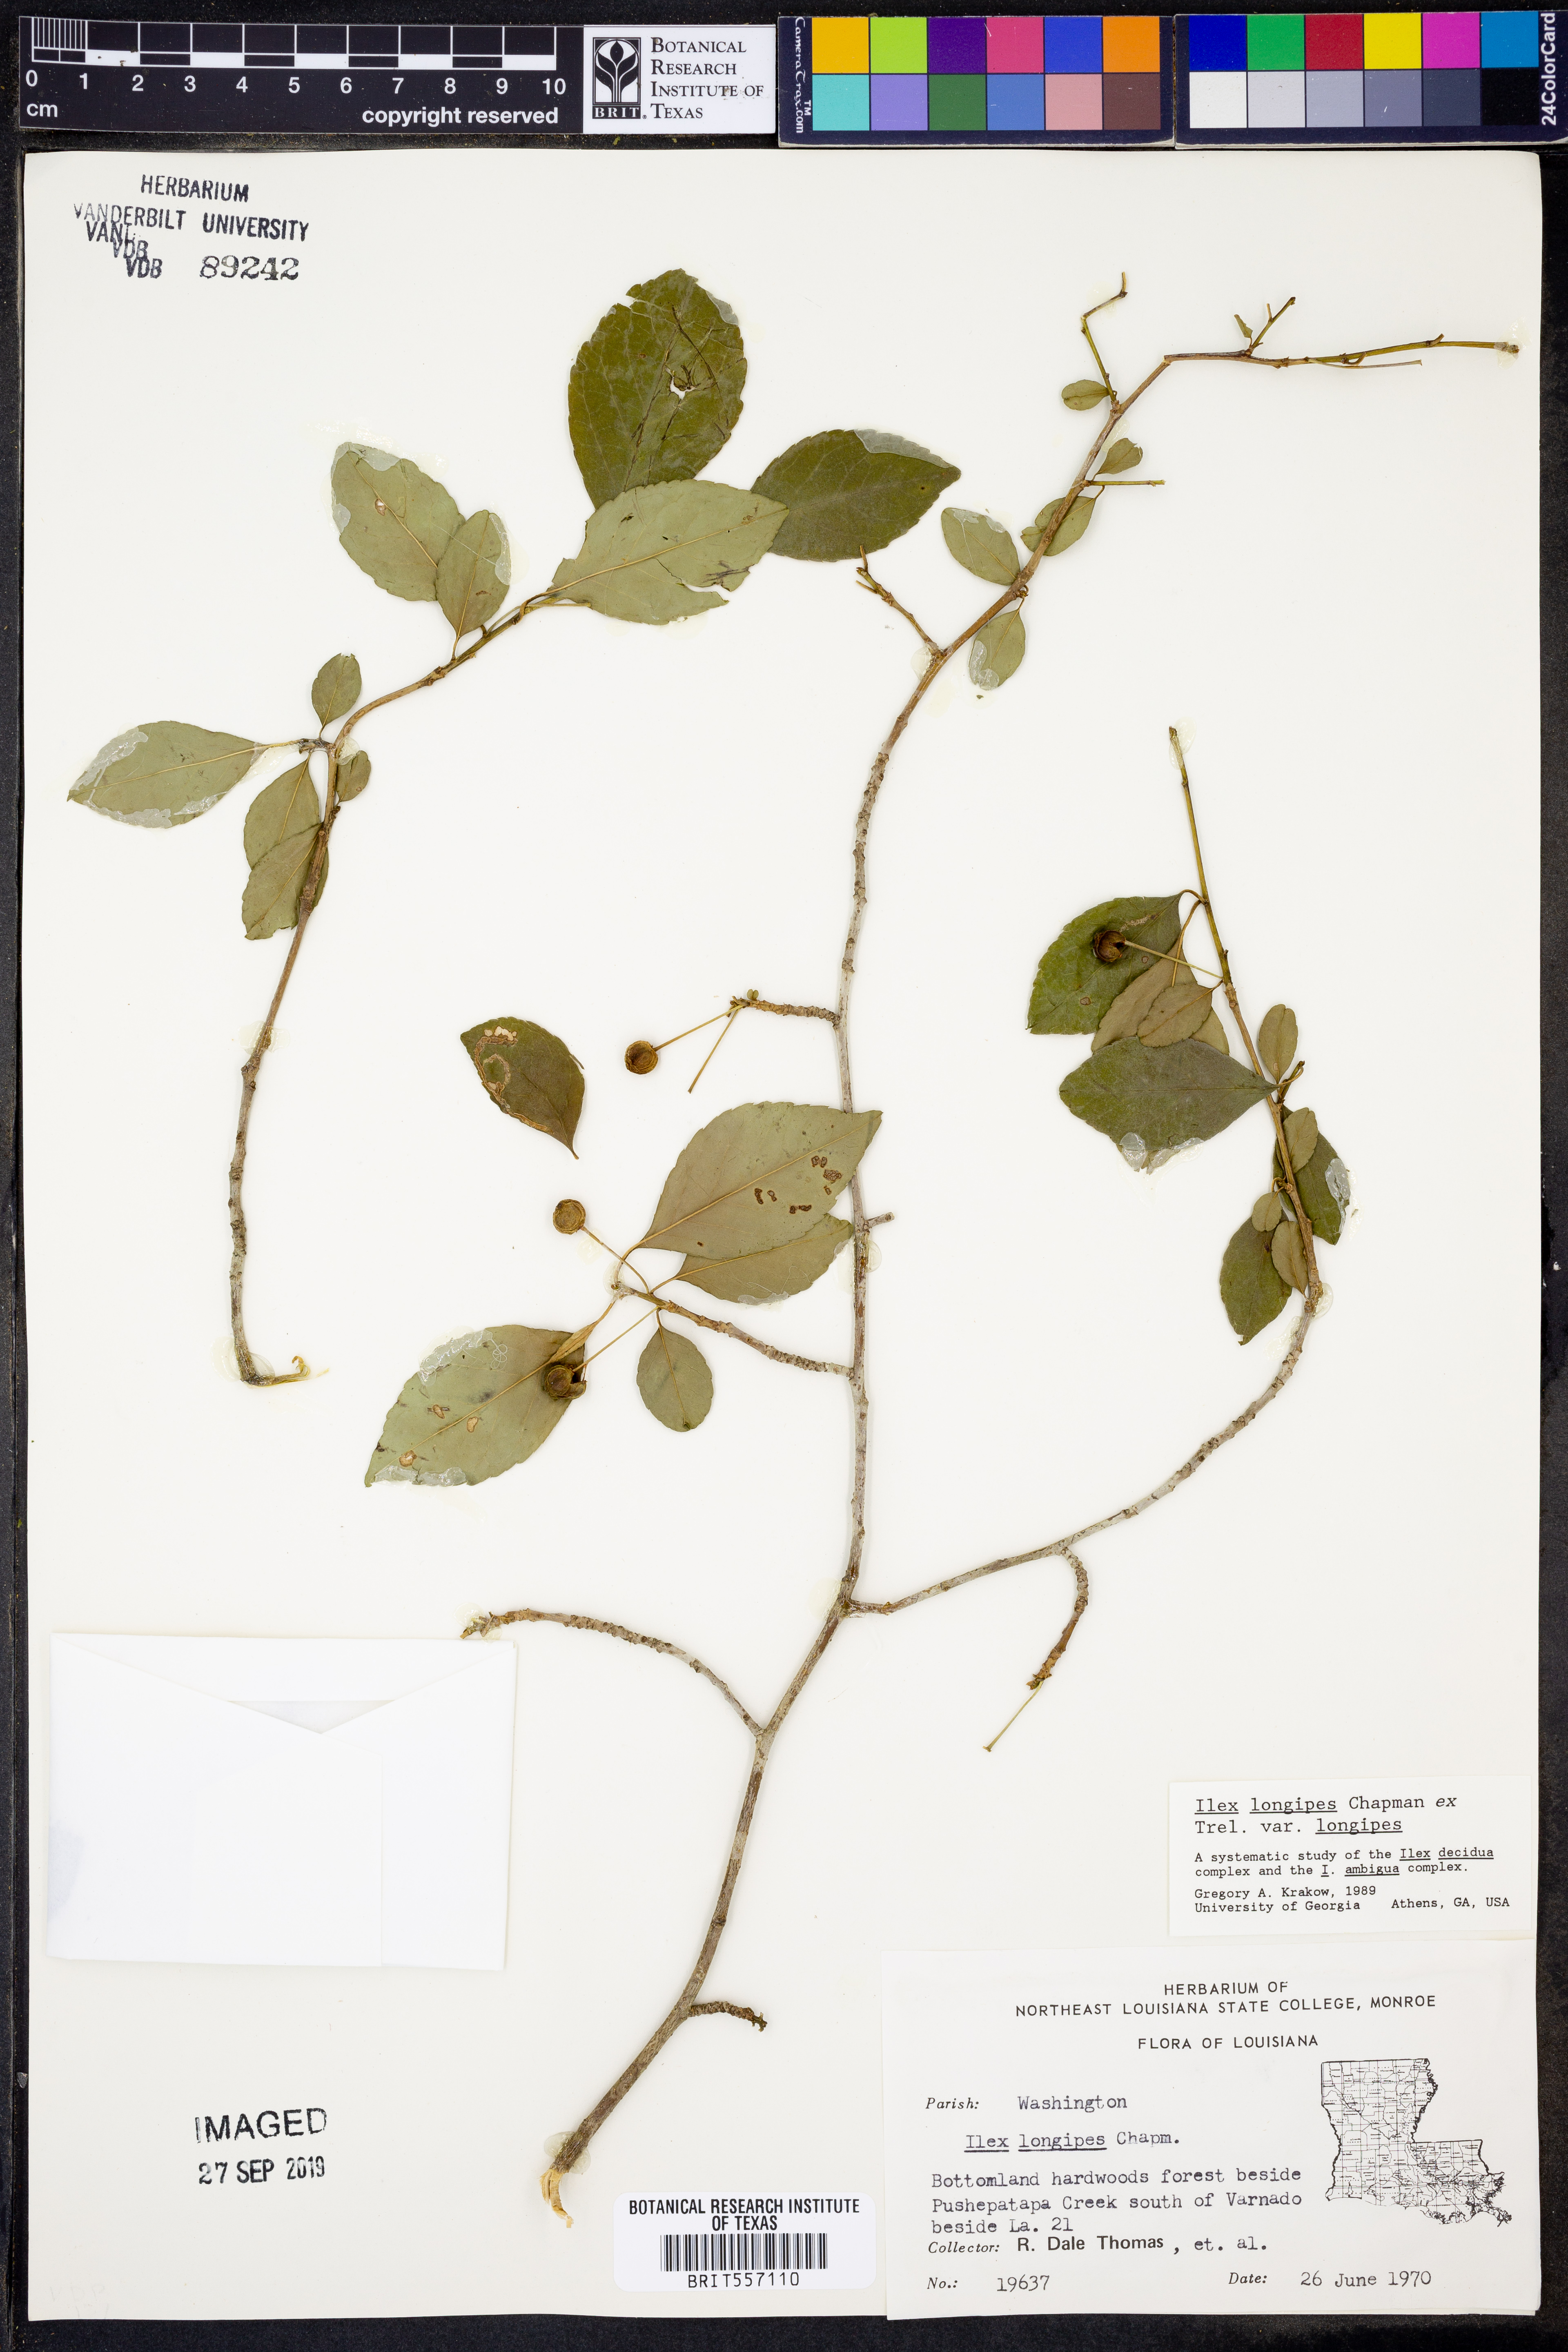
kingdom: Plantae
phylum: Tracheophyta
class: Magnoliopsida
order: Aquifoliales
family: Aquifoliaceae
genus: Ilex
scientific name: Ilex longipes
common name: Georgia holly
